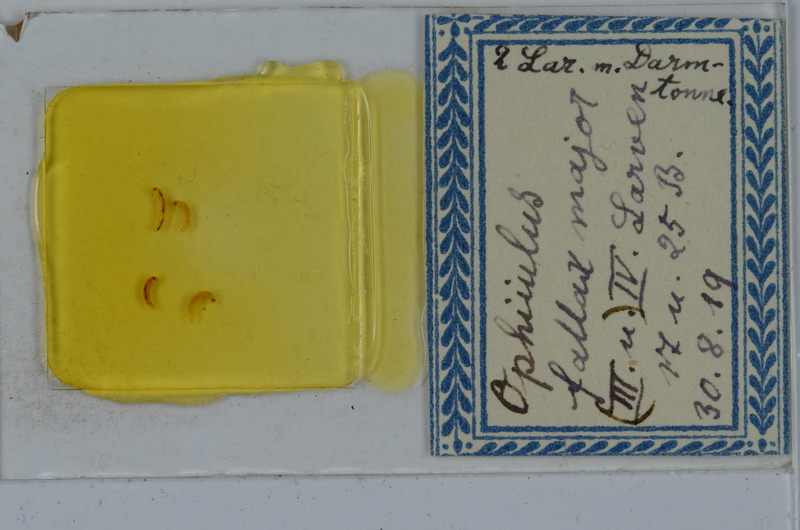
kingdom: Animalia
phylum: Arthropoda
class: Diplopoda
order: Julida
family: Julidae
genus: Ophyiulus
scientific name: Ophyiulus pilosus
